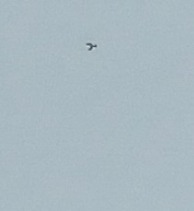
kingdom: Animalia
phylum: Chordata
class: Aves
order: Falconiformes
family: Falconidae
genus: Falco
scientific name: Falco tinnunculus
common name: Tårnfalk
